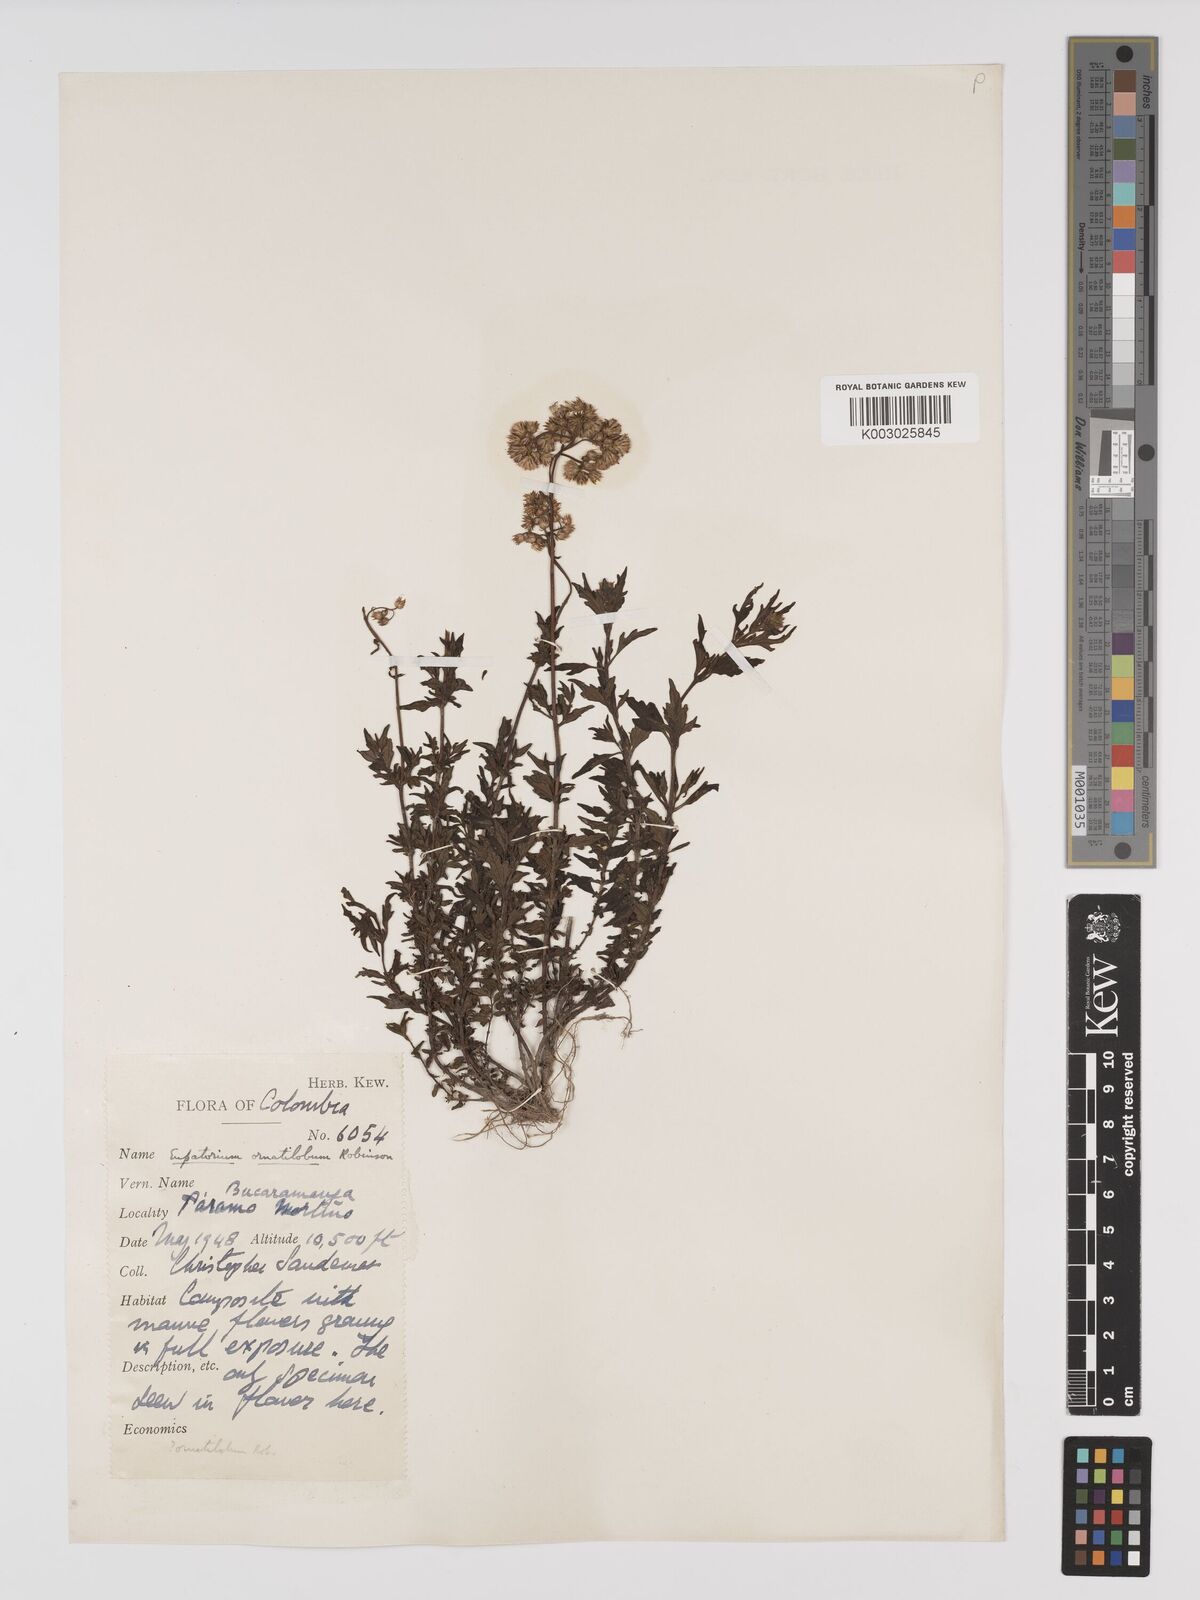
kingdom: Plantae
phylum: Tracheophyta
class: Magnoliopsida
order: Asterales
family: Asteraceae
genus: Lourteigia
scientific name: Lourteigia ornatiloba
